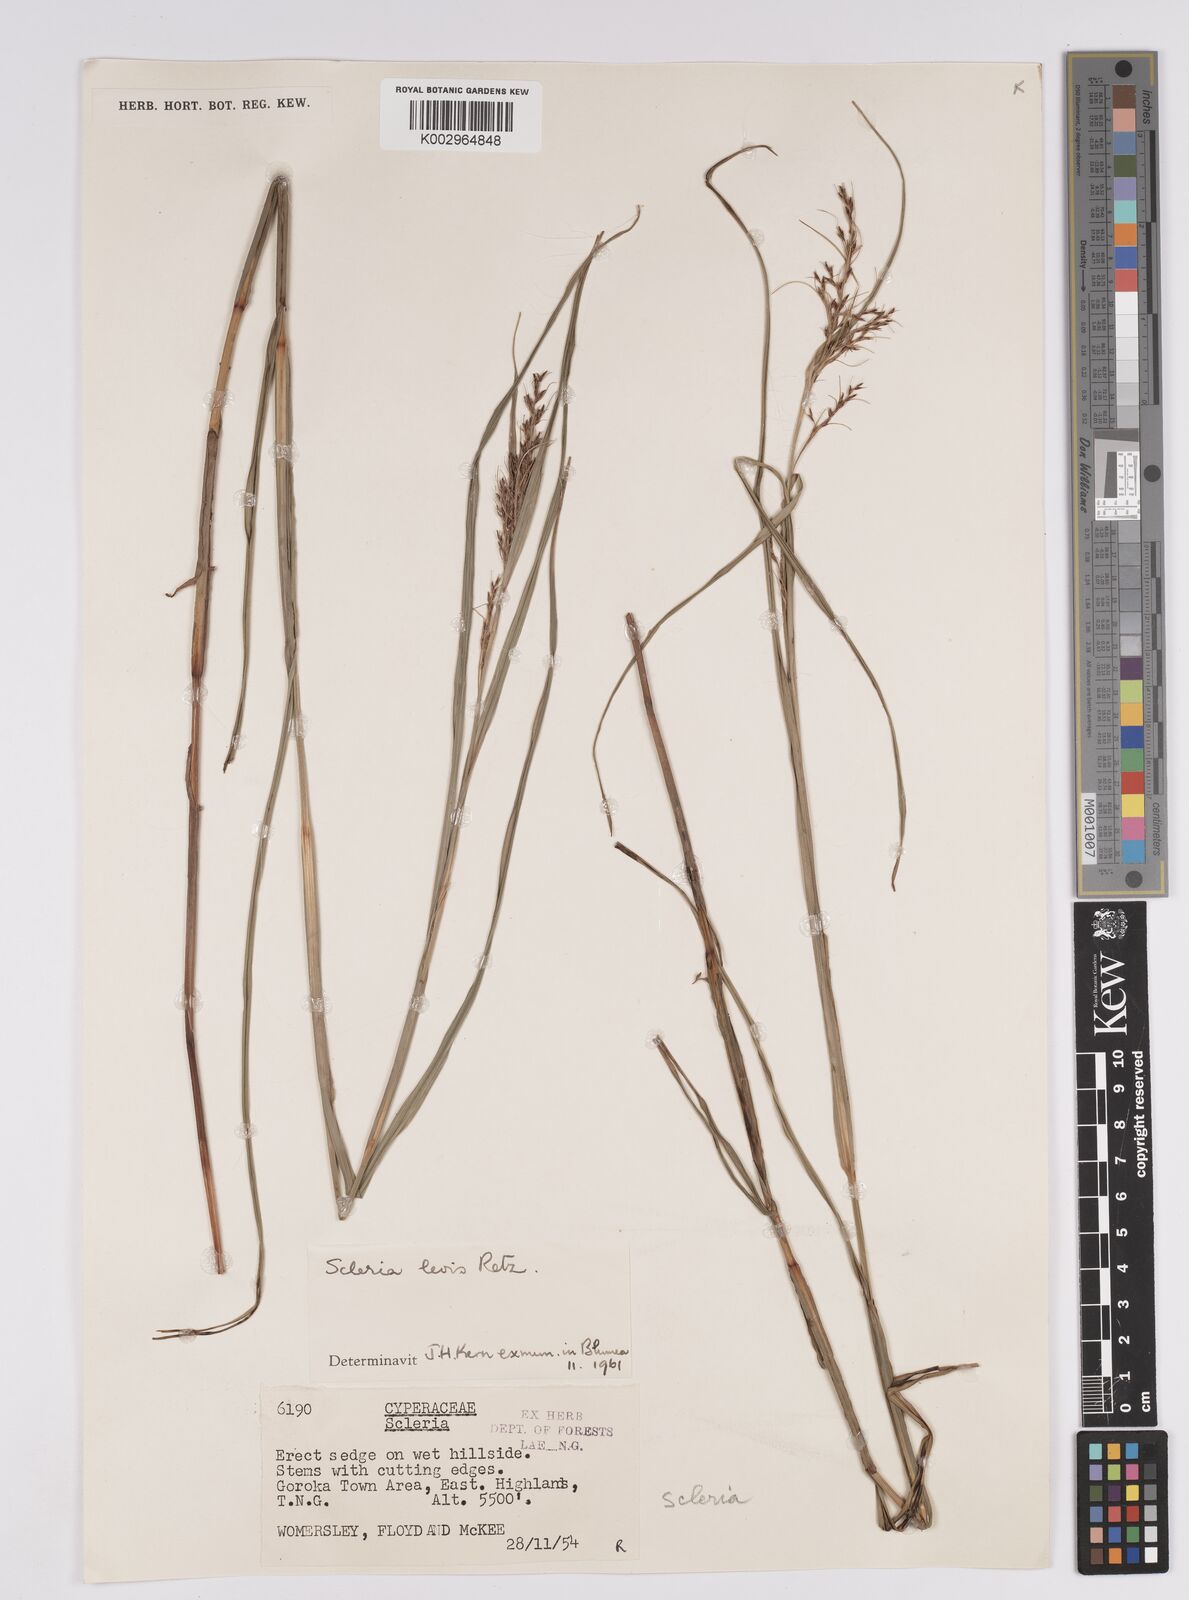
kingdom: Plantae
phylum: Tracheophyta
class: Liliopsida
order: Poales
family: Cyperaceae
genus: Scleria
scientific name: Scleria
